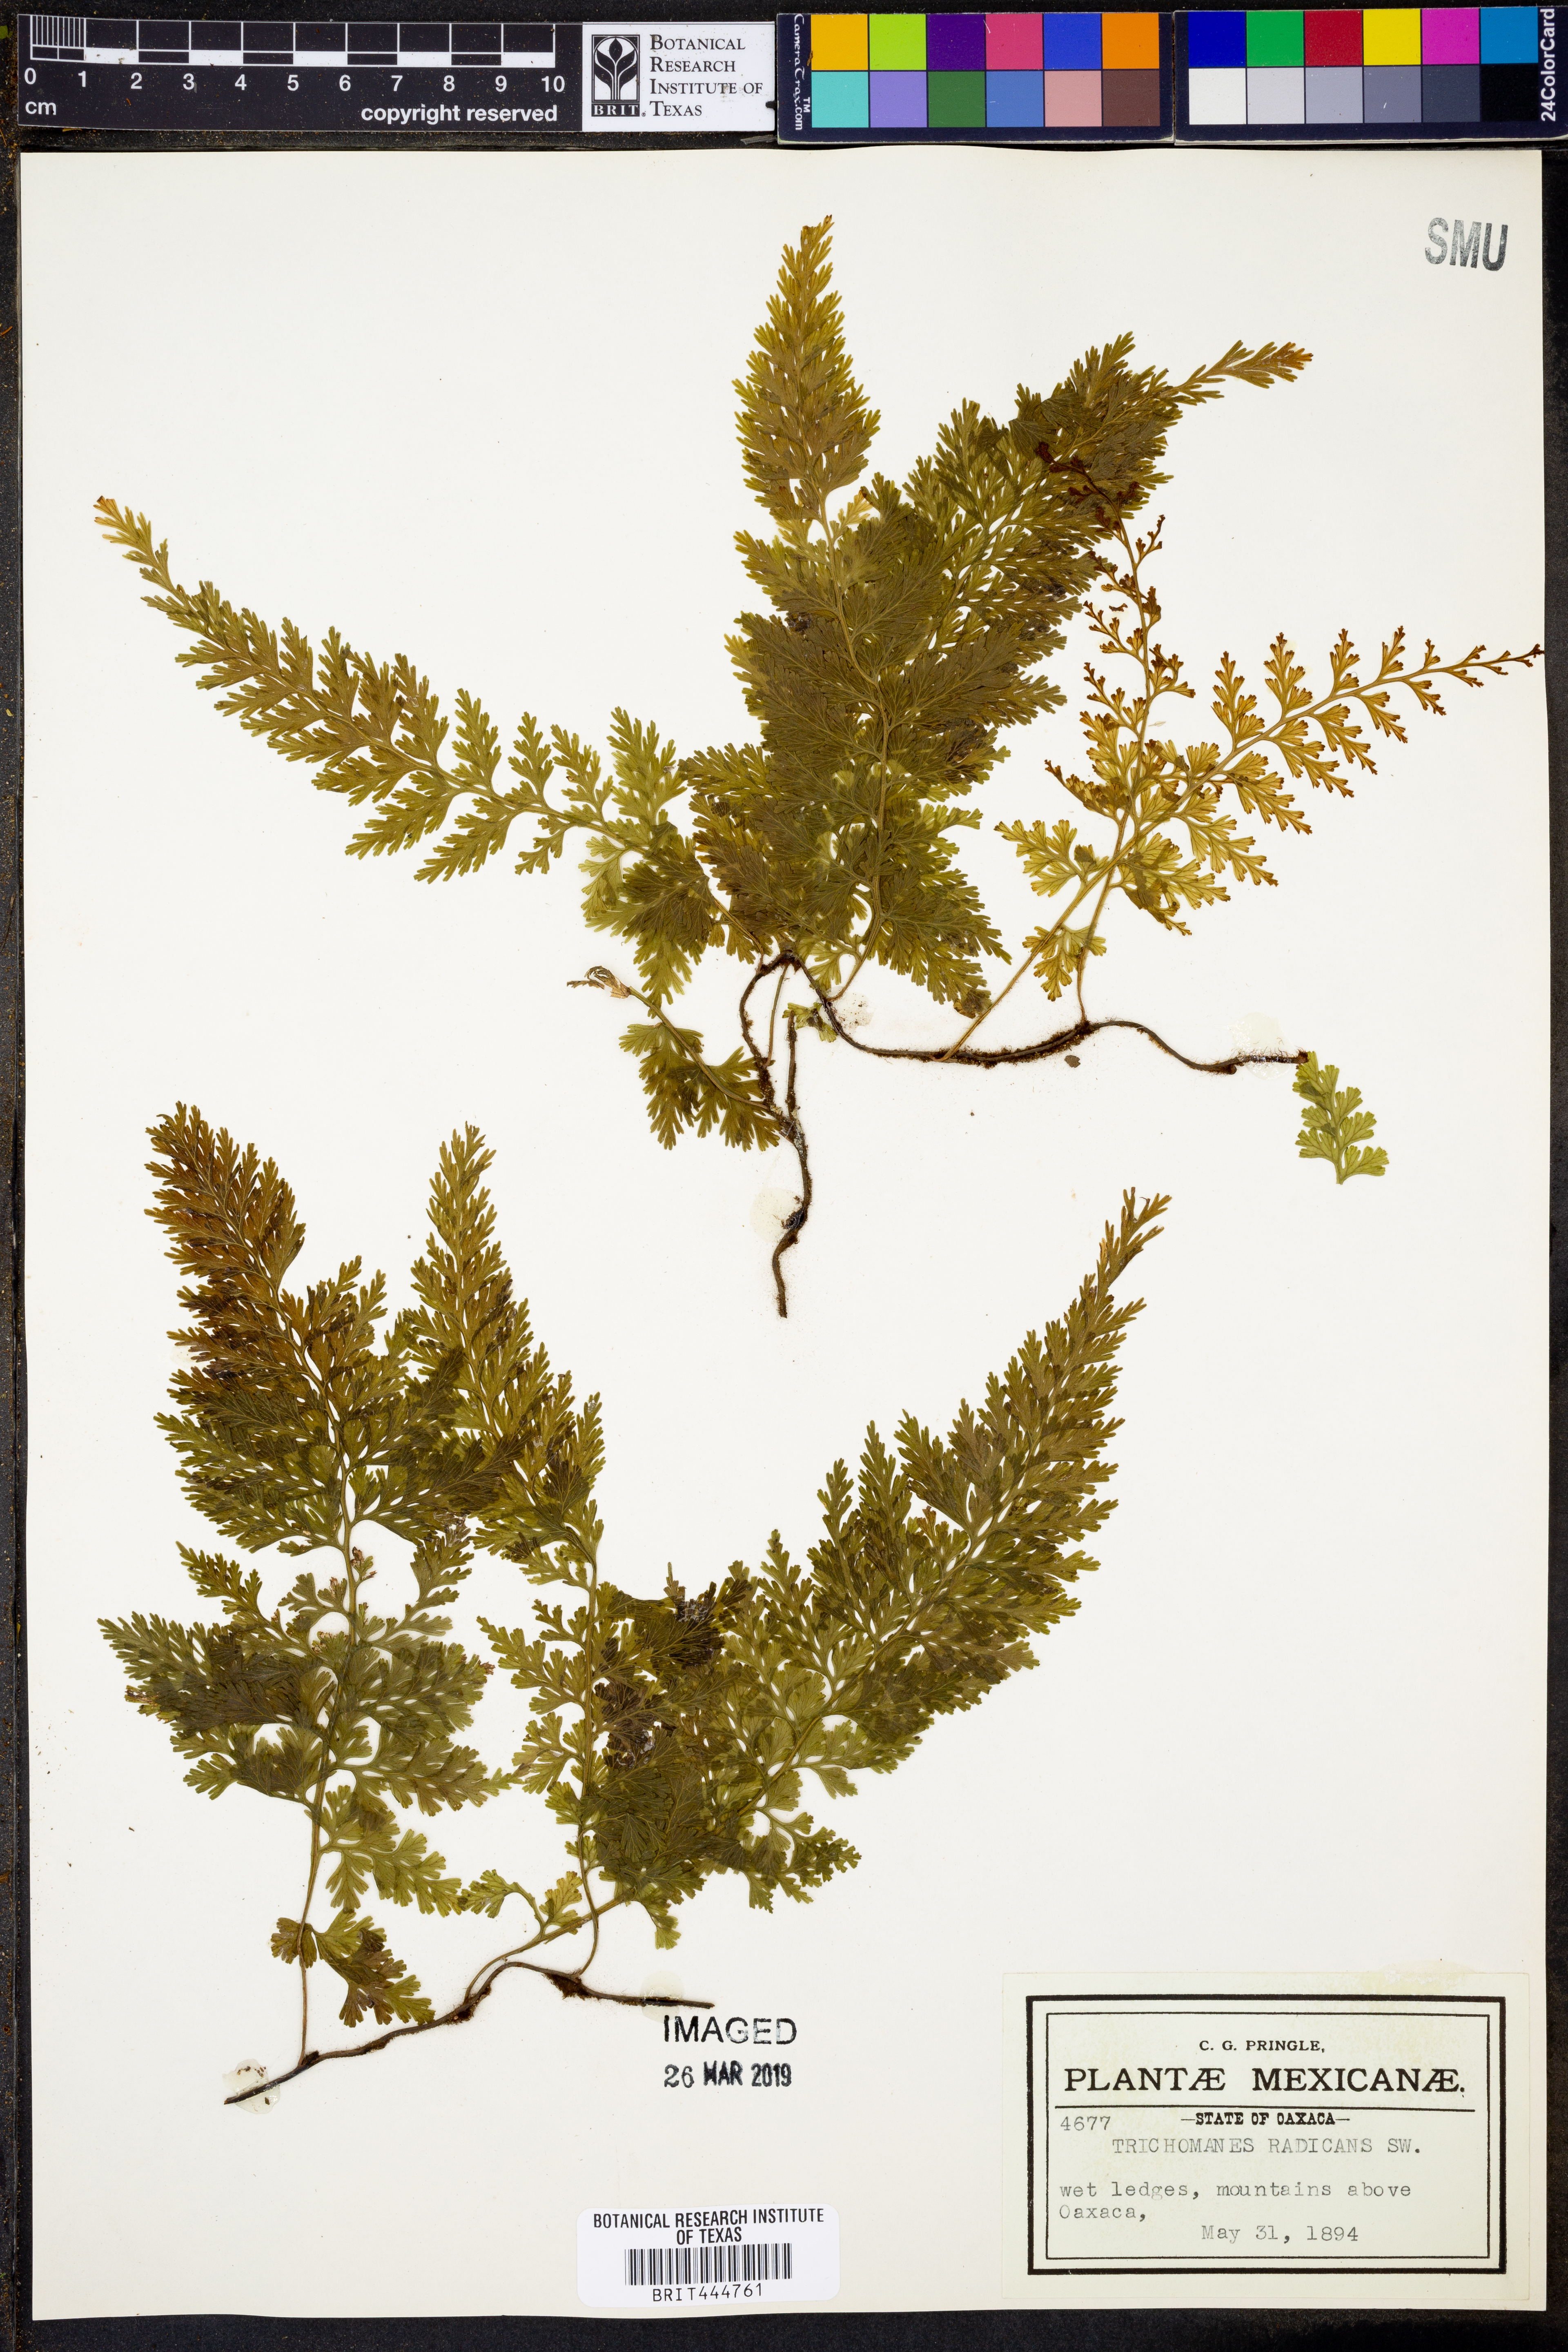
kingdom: Plantae
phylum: Tracheophyta
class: Polypodiopsida
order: Hymenophyllales
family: Hymenophyllaceae
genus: Vandenboschia
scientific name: Vandenboschia radicans
